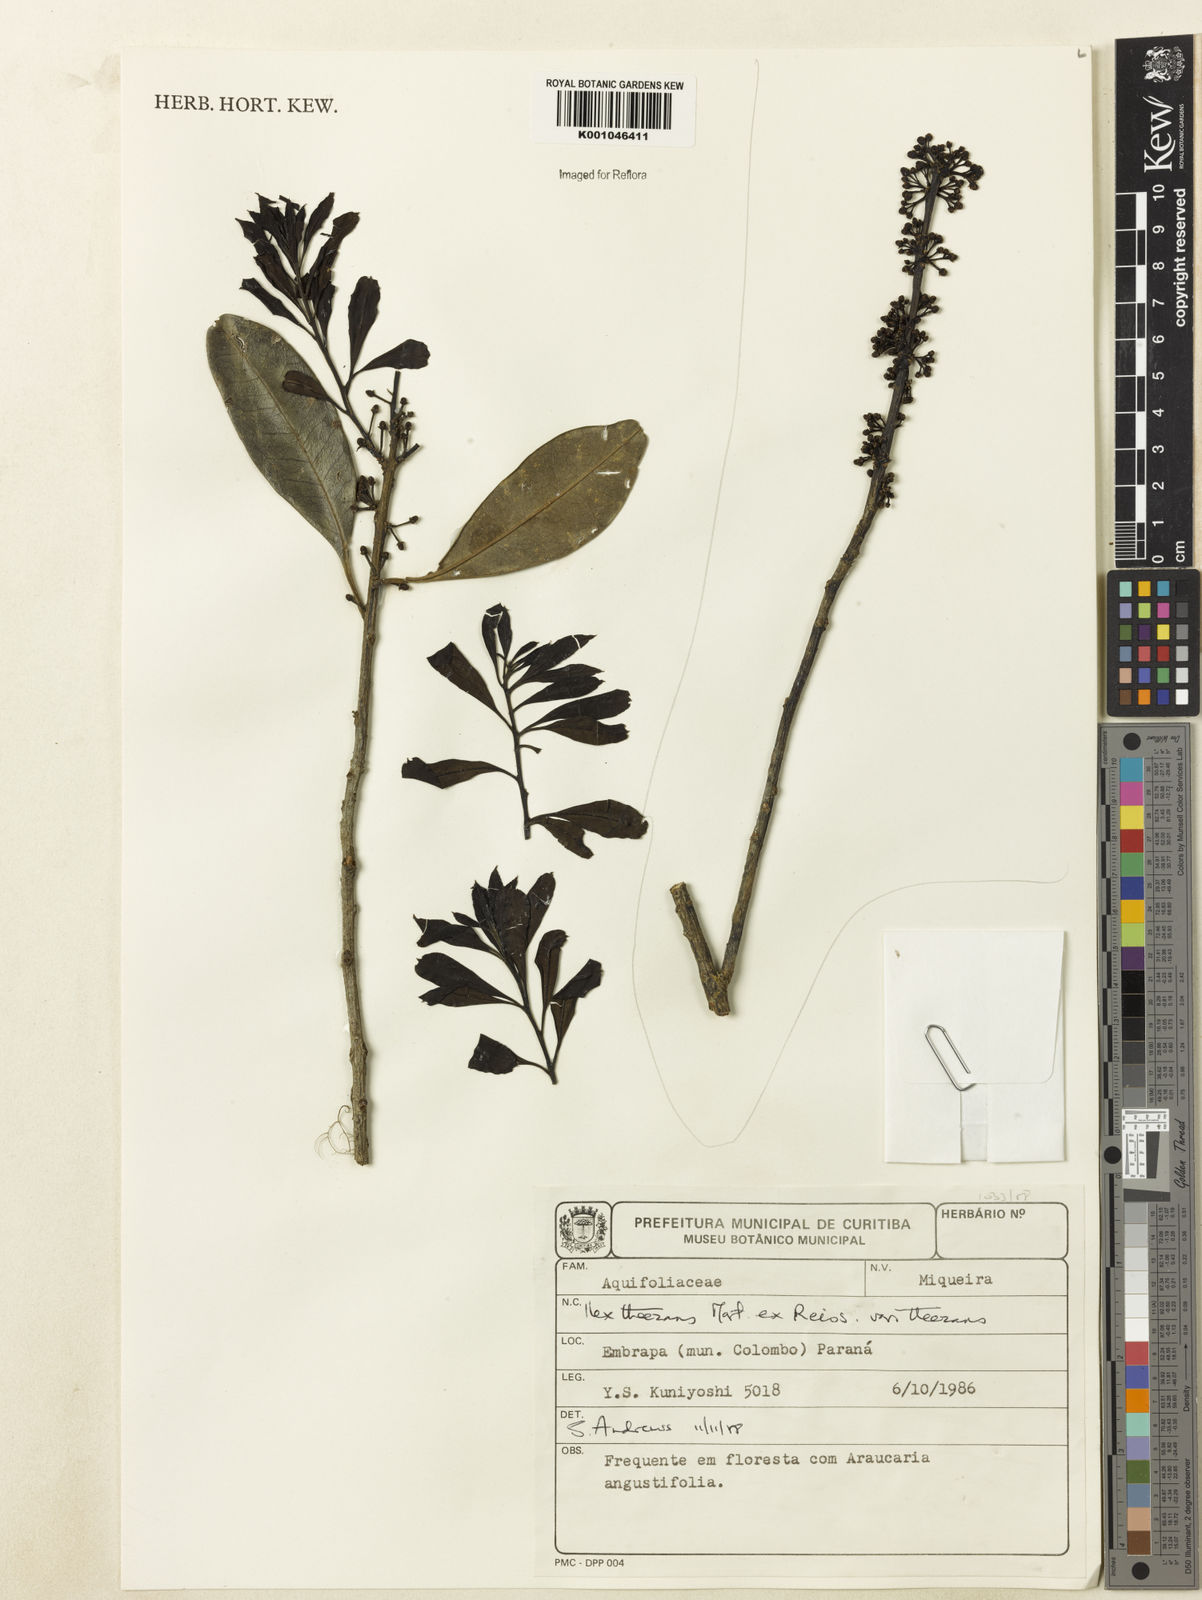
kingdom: Plantae
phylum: Tracheophyta
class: Magnoliopsida
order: Aquifoliales
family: Aquifoliaceae
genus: Ilex
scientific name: Ilex theezans
